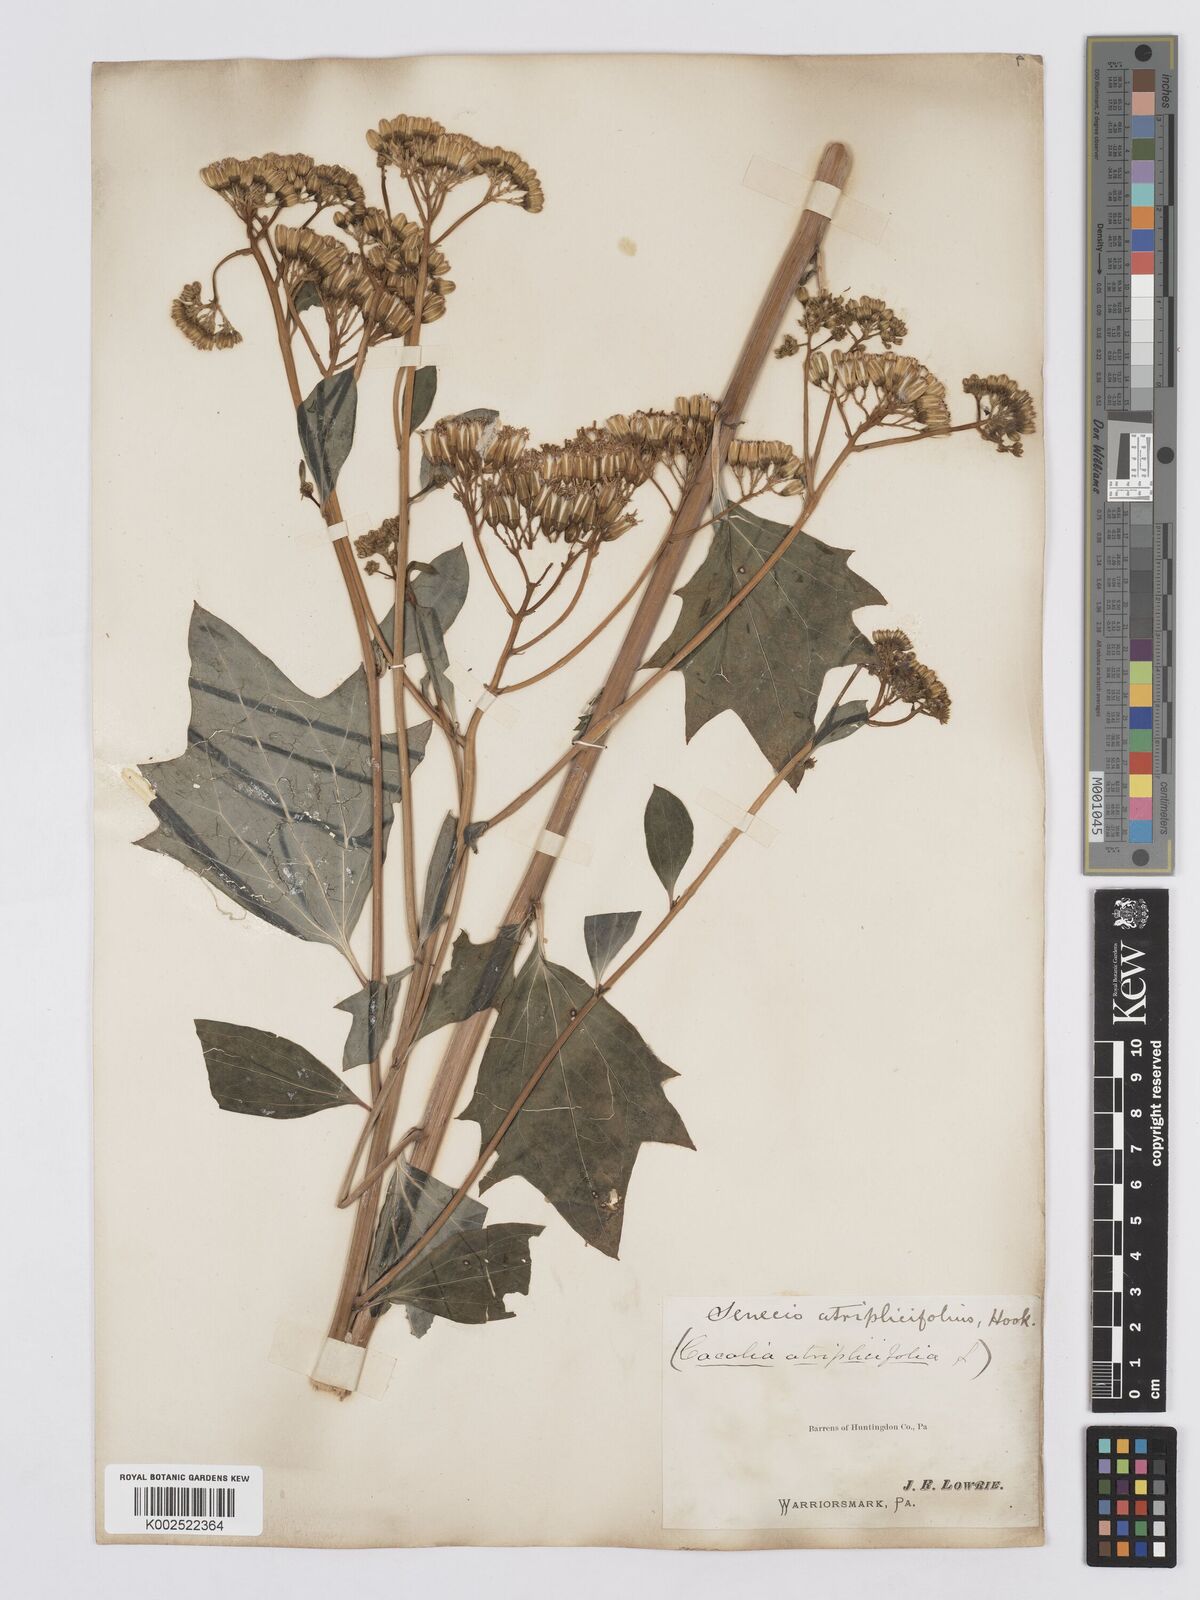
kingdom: Plantae
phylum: Tracheophyta
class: Magnoliopsida
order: Asterales
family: Asteraceae
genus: Arnoglossum
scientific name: Arnoglossum atriplicifolium
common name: Pale indian-plantain
